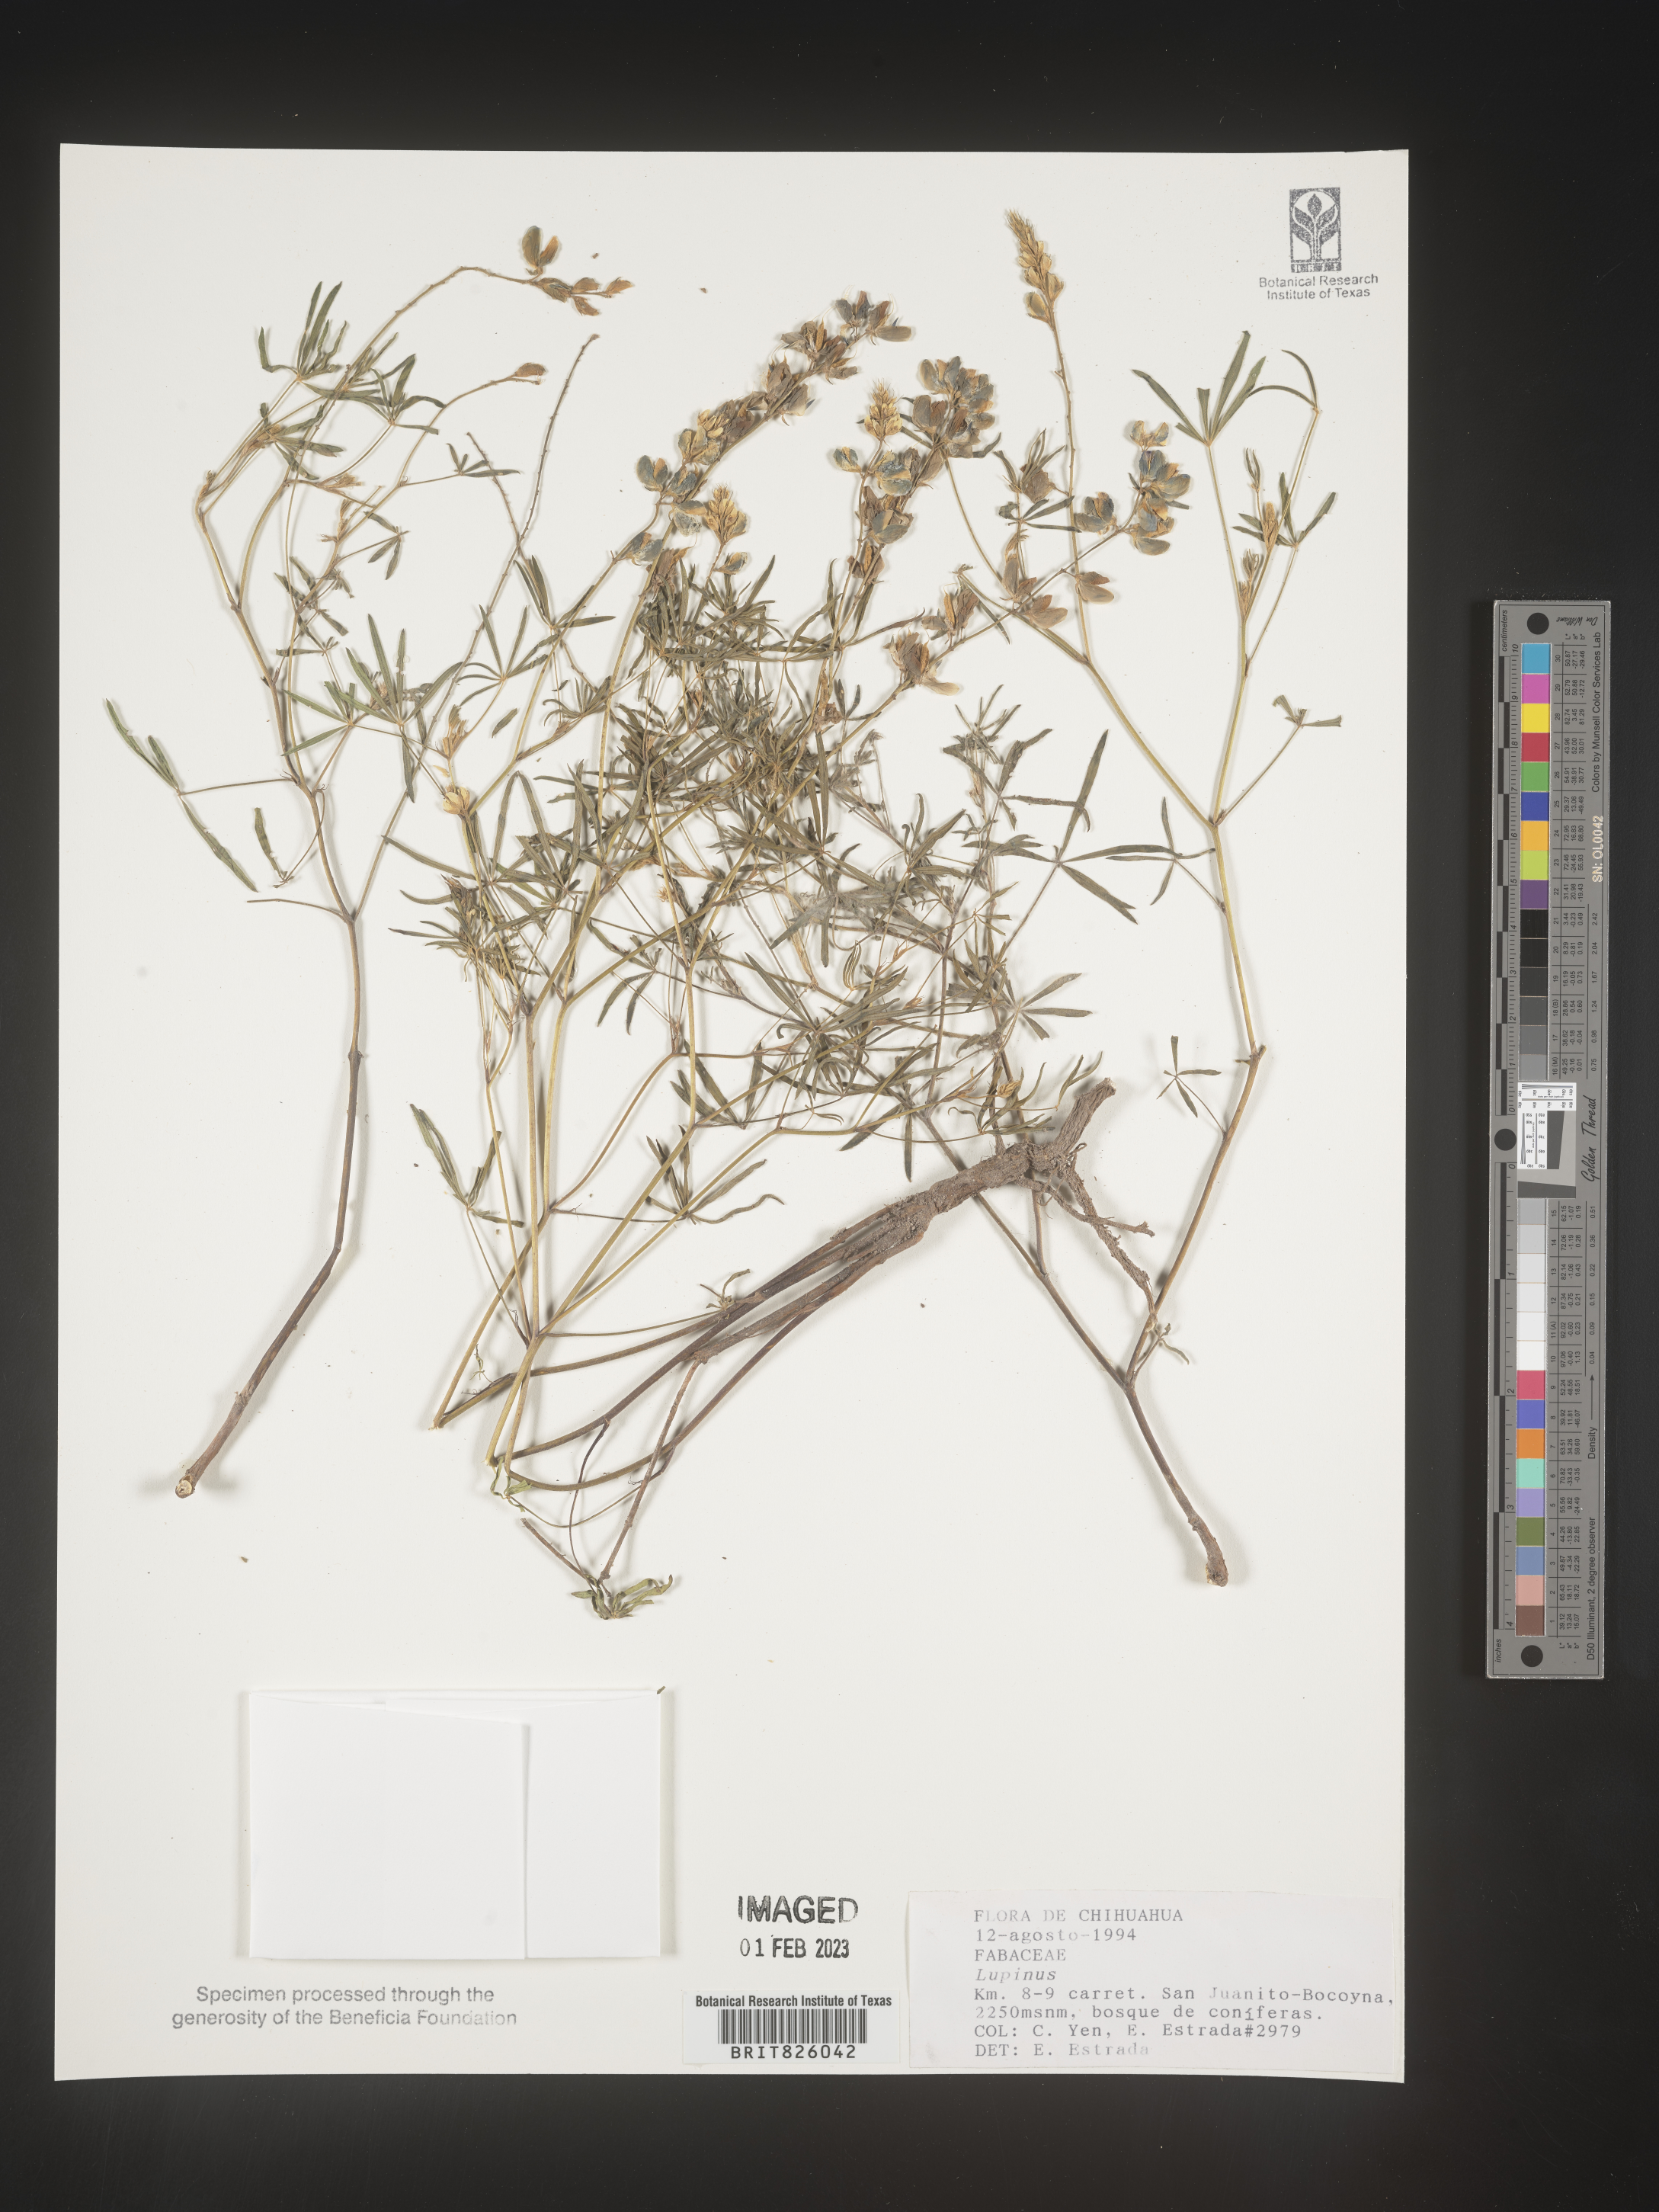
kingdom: Plantae
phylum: Tracheophyta
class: Magnoliopsida
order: Fabales
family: Fabaceae
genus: Lupinus
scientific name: Lupinus
